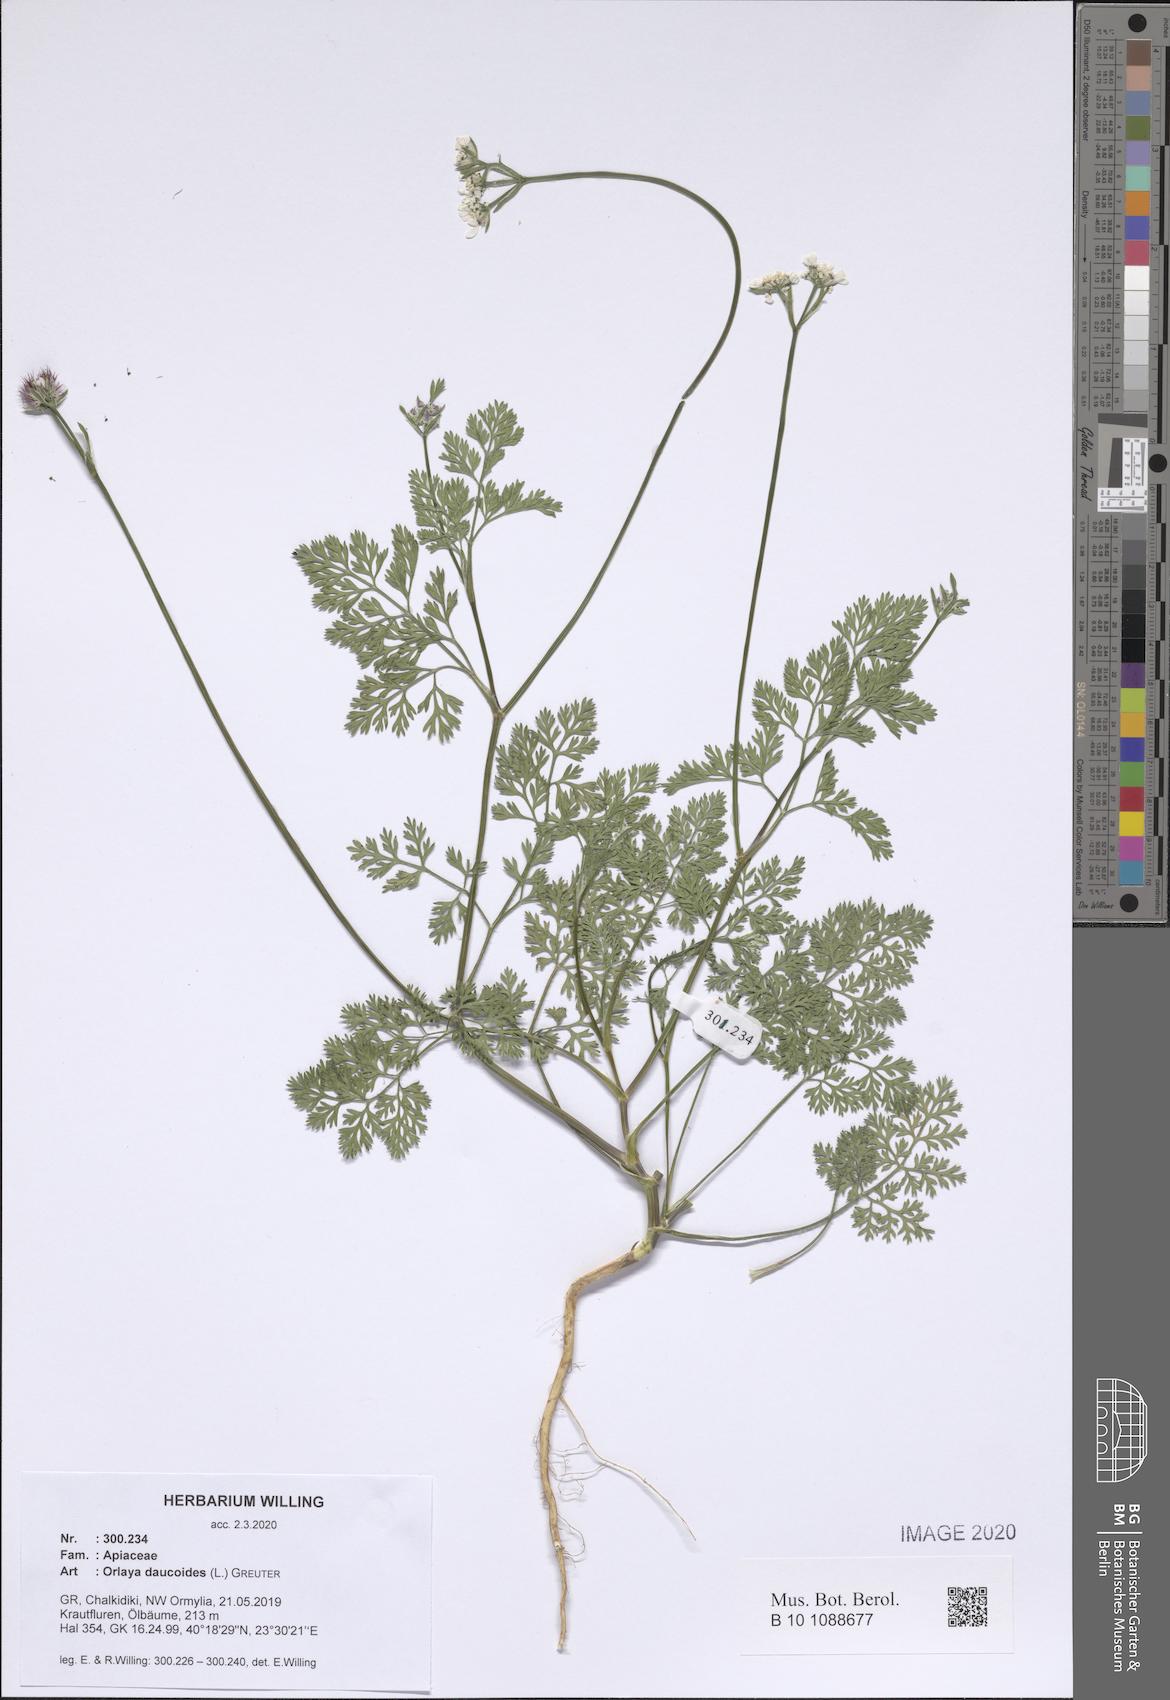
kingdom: Plantae
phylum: Tracheophyta
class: Magnoliopsida
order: Apiales
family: Apiaceae
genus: Orlaya
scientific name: Orlaya daucoides
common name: Flat-fruit orlaya
